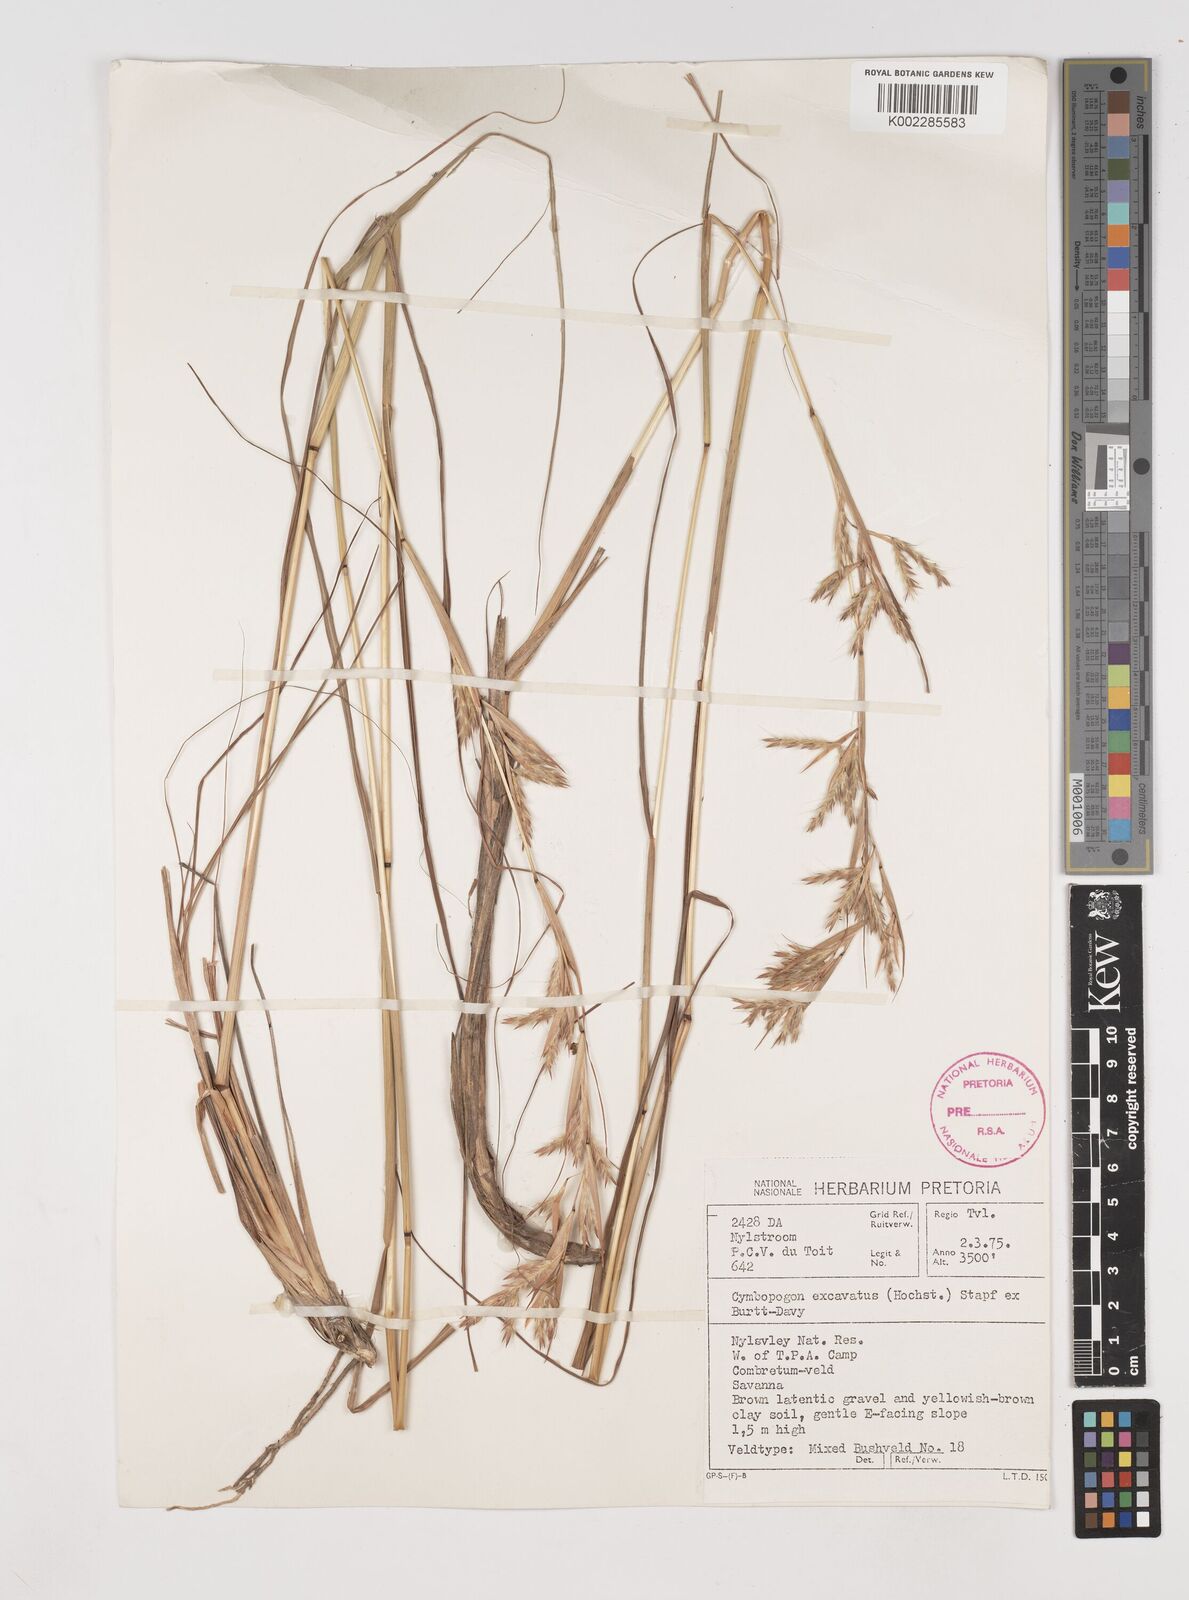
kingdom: Plantae
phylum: Tracheophyta
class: Liliopsida
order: Poales
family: Poaceae
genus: Cymbopogon
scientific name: Cymbopogon caesius
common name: Kachi grass
